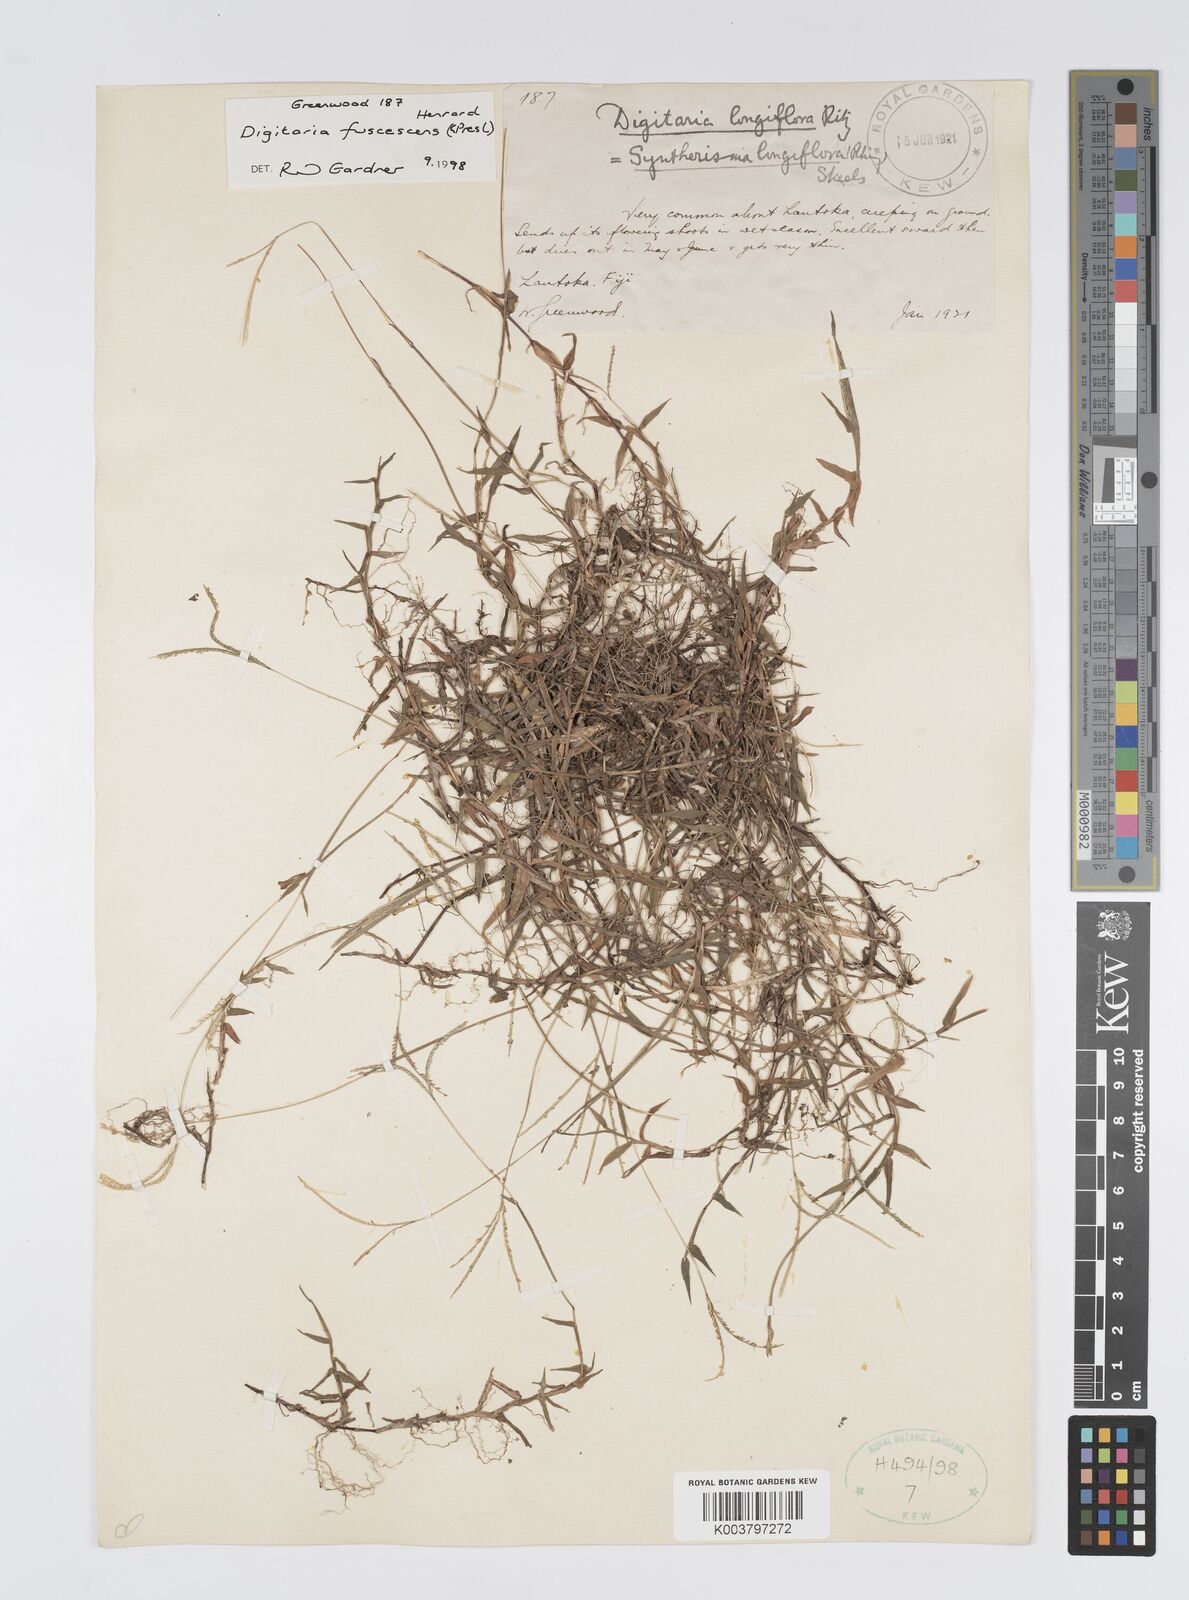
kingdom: Plantae
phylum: Tracheophyta
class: Liliopsida
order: Poales
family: Poaceae
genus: Digitaria
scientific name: Digitaria fuscescens
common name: Yellow crabgrass
